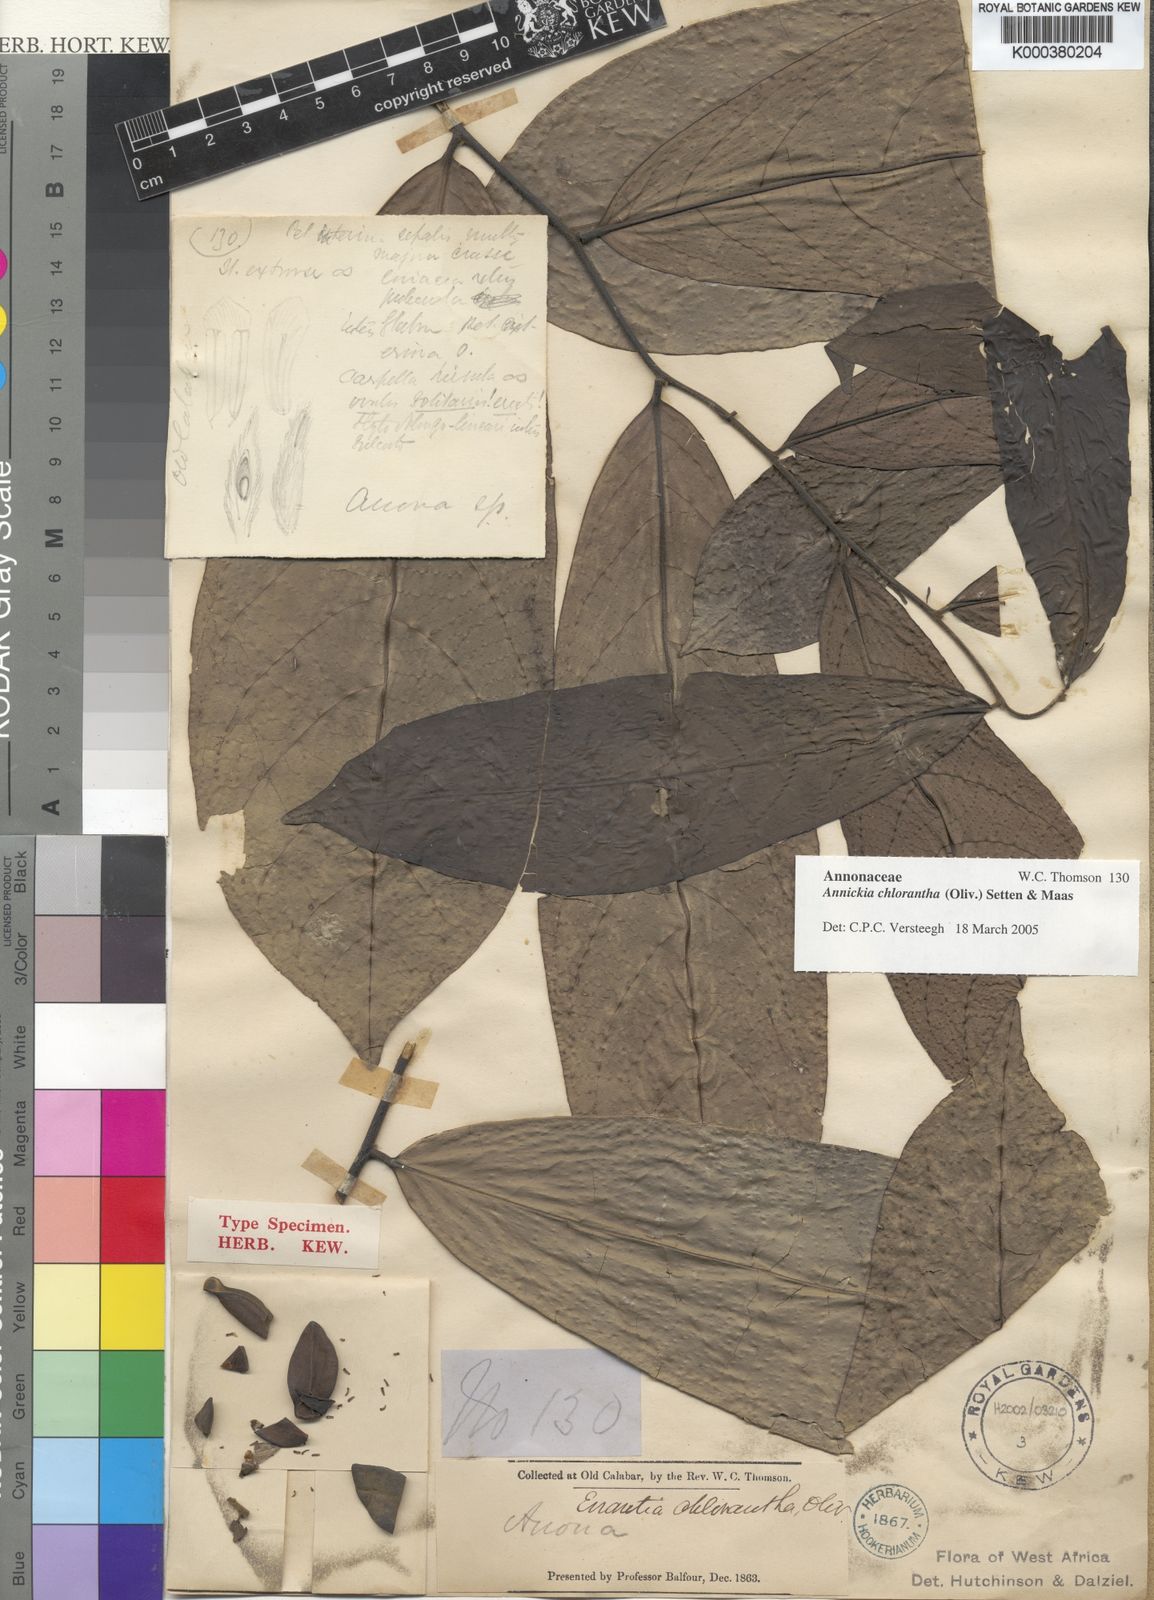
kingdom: Plantae
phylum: Tracheophyta
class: Magnoliopsida
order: Magnoliales
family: Annonaceae
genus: Annickia
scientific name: Annickia chlorantha
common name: African yellowwood
